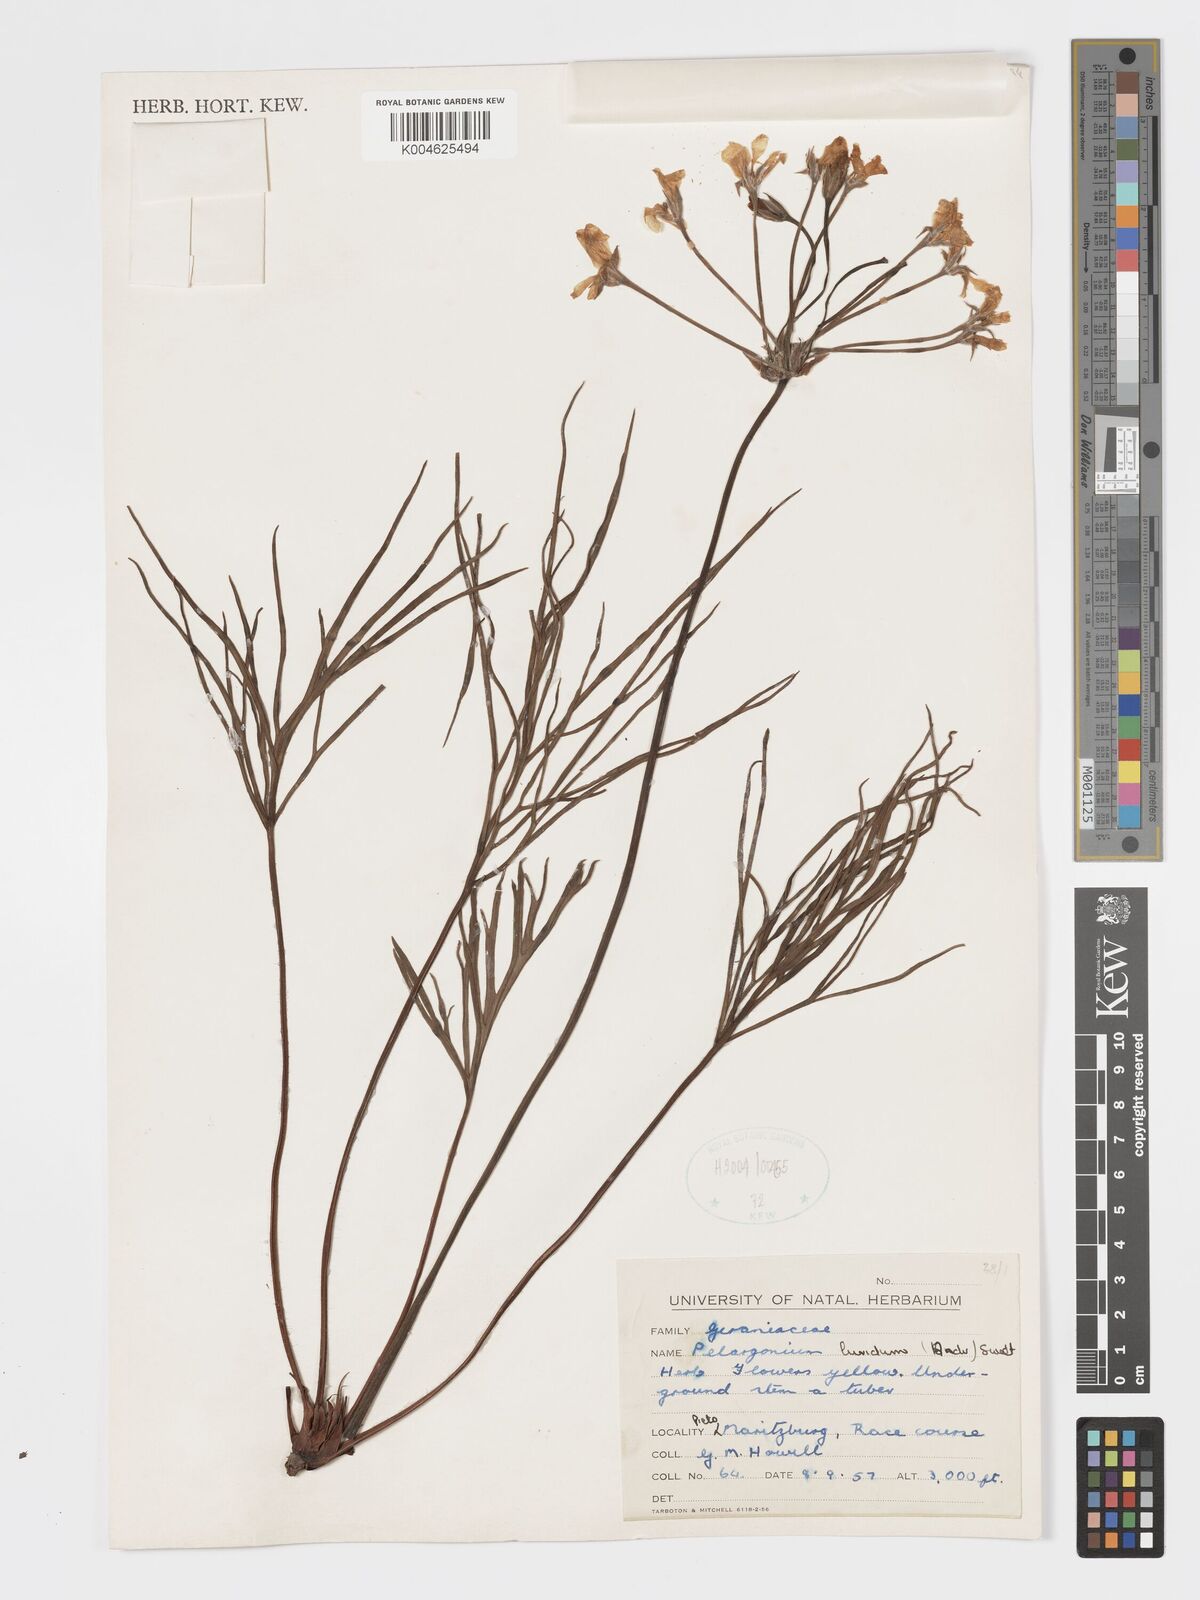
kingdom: Plantae
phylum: Tracheophyta
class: Magnoliopsida
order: Geraniales
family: Geraniaceae
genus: Pelargonium
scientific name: Pelargonium luridum
